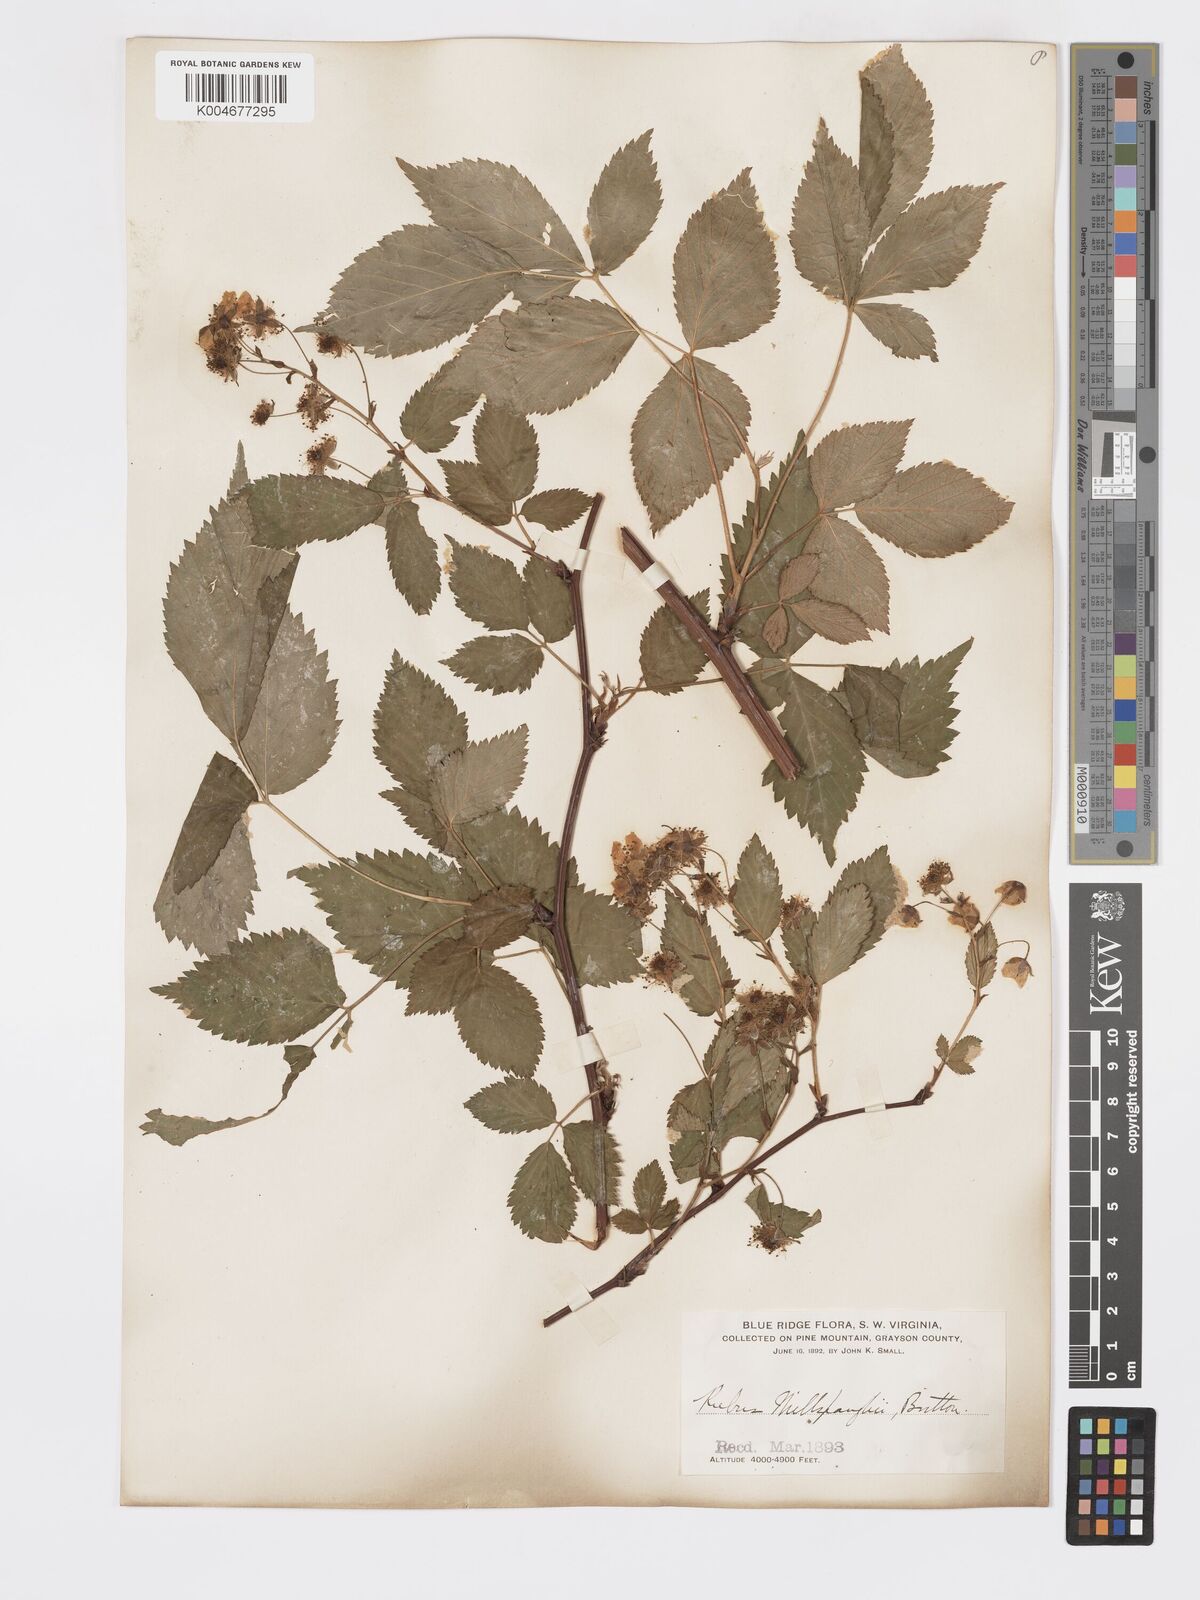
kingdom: Plantae
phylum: Tracheophyta
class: Magnoliopsida
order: Rosales
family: Rosaceae
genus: Rubus
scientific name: Rubus canadensis
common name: Smooth blackberry
